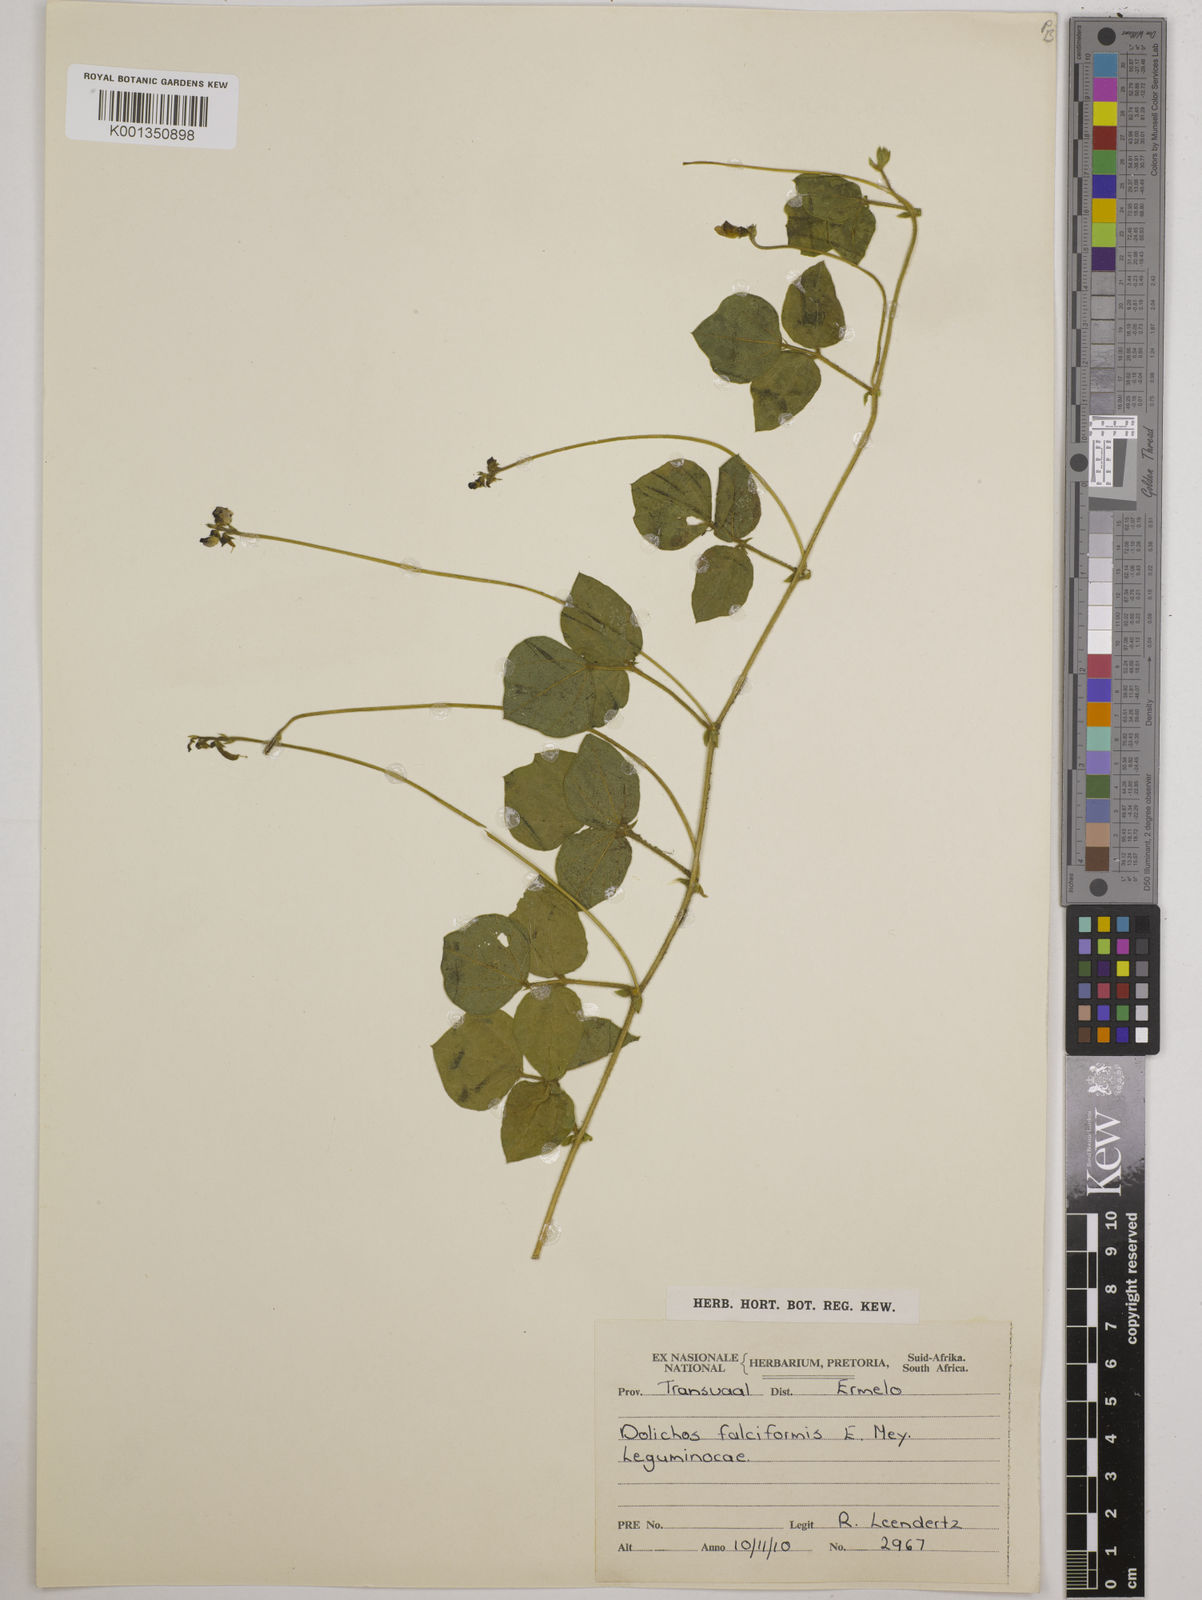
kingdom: Plantae
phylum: Tracheophyta
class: Magnoliopsida
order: Fabales
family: Fabaceae
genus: Dolichos
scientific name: Dolichos falciformis
